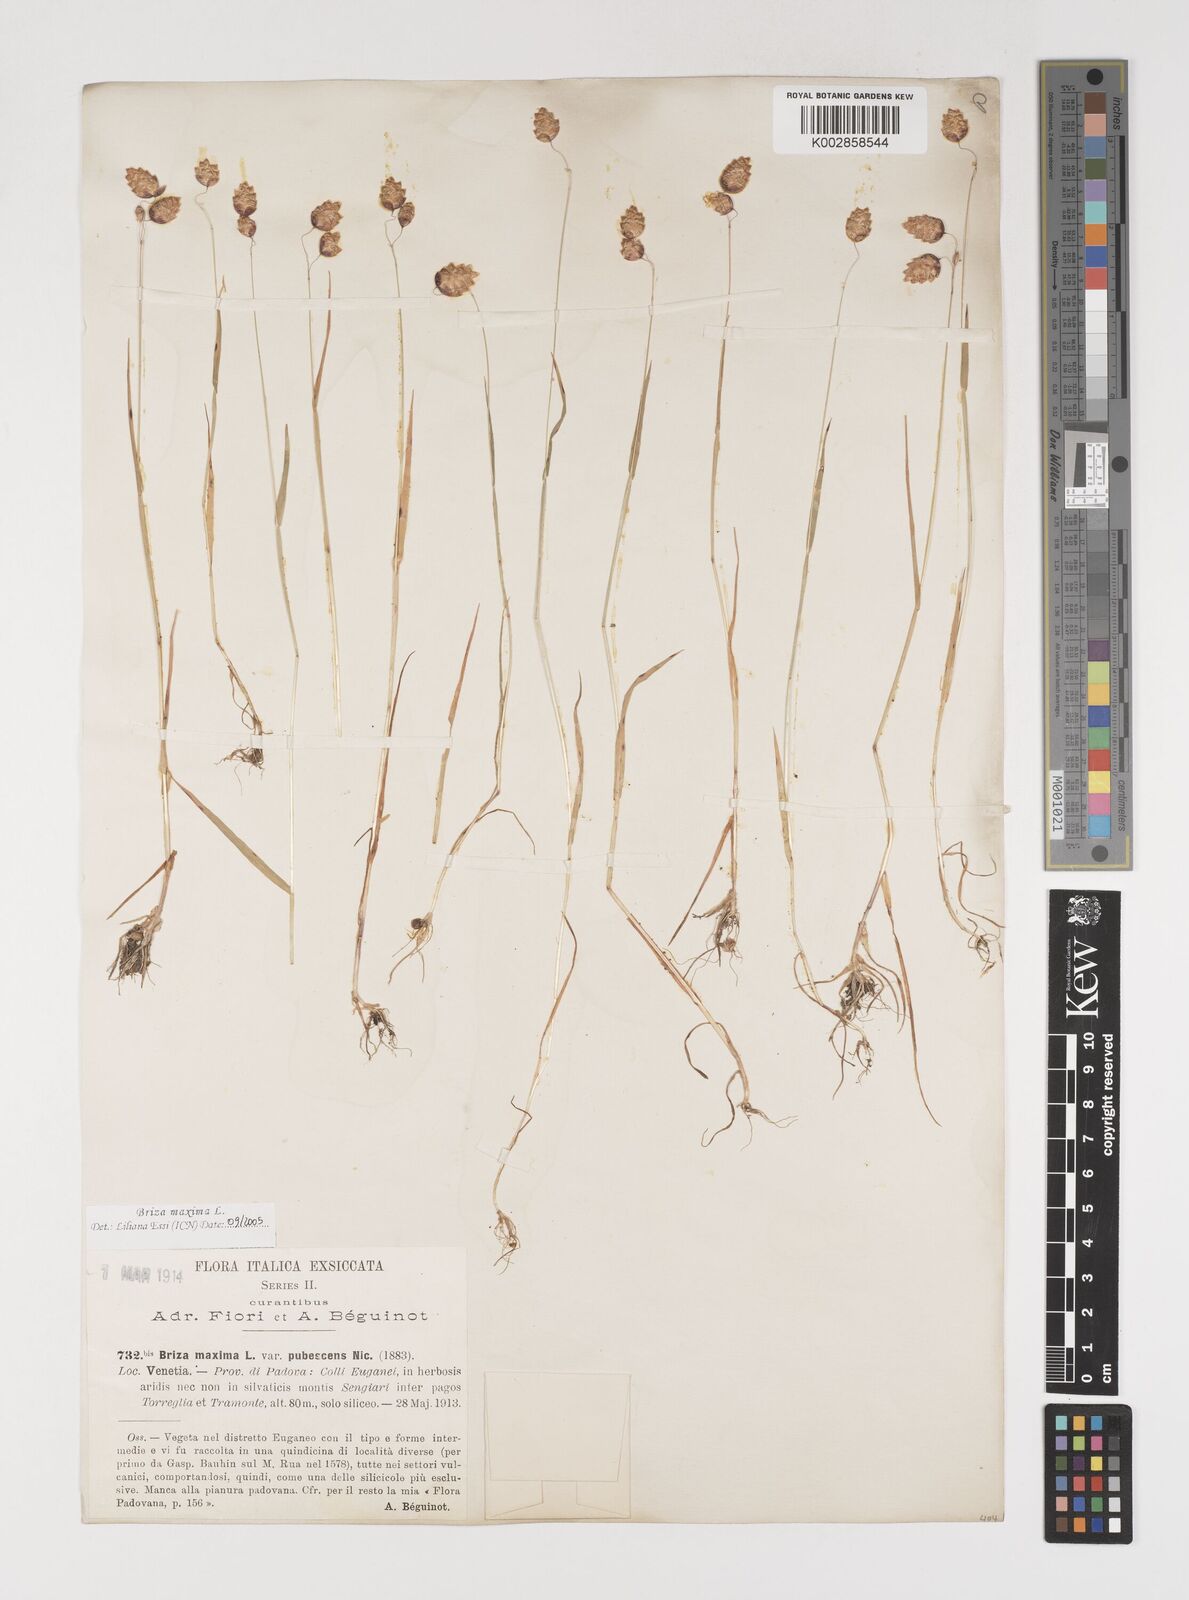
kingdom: Plantae
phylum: Tracheophyta
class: Liliopsida
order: Poales
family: Poaceae
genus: Briza
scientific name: Briza maxima
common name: Big quakinggrass
